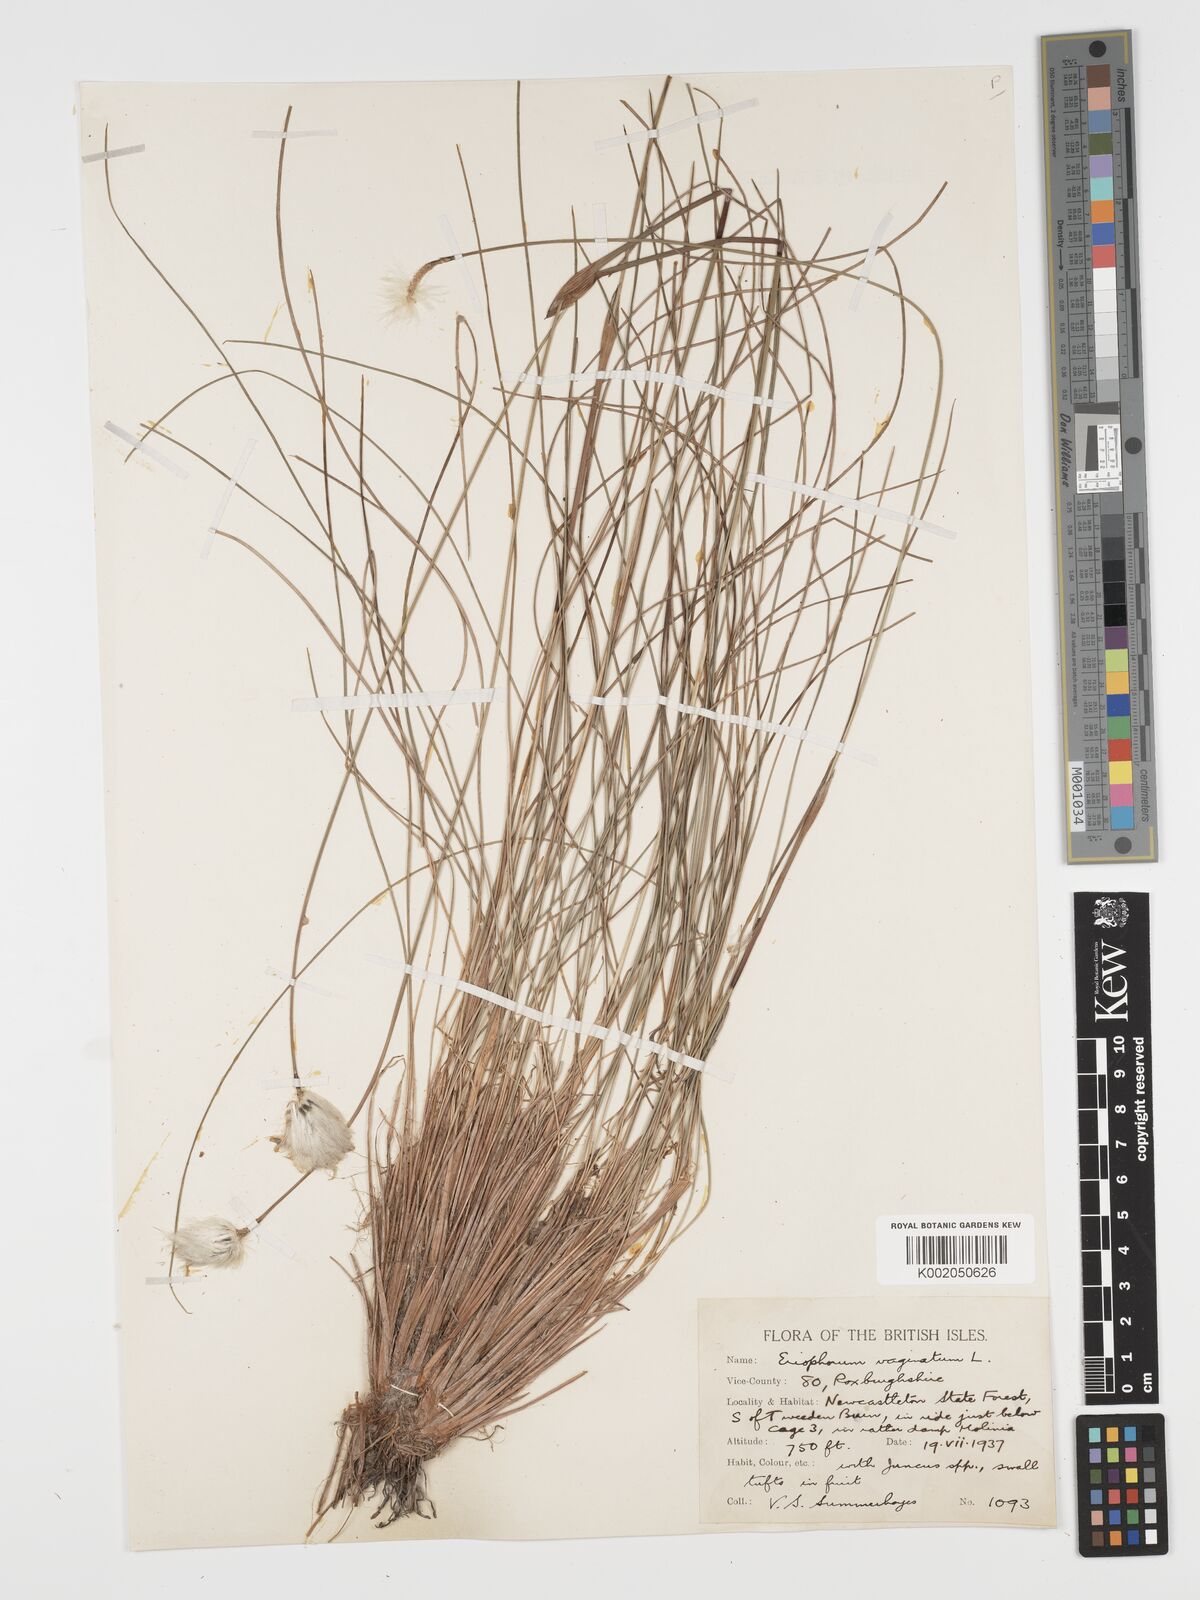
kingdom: Plantae
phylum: Tracheophyta
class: Liliopsida
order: Poales
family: Cyperaceae
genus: Eriophorum
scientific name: Eriophorum vaginatum
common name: Hare's-tail cottongrass
